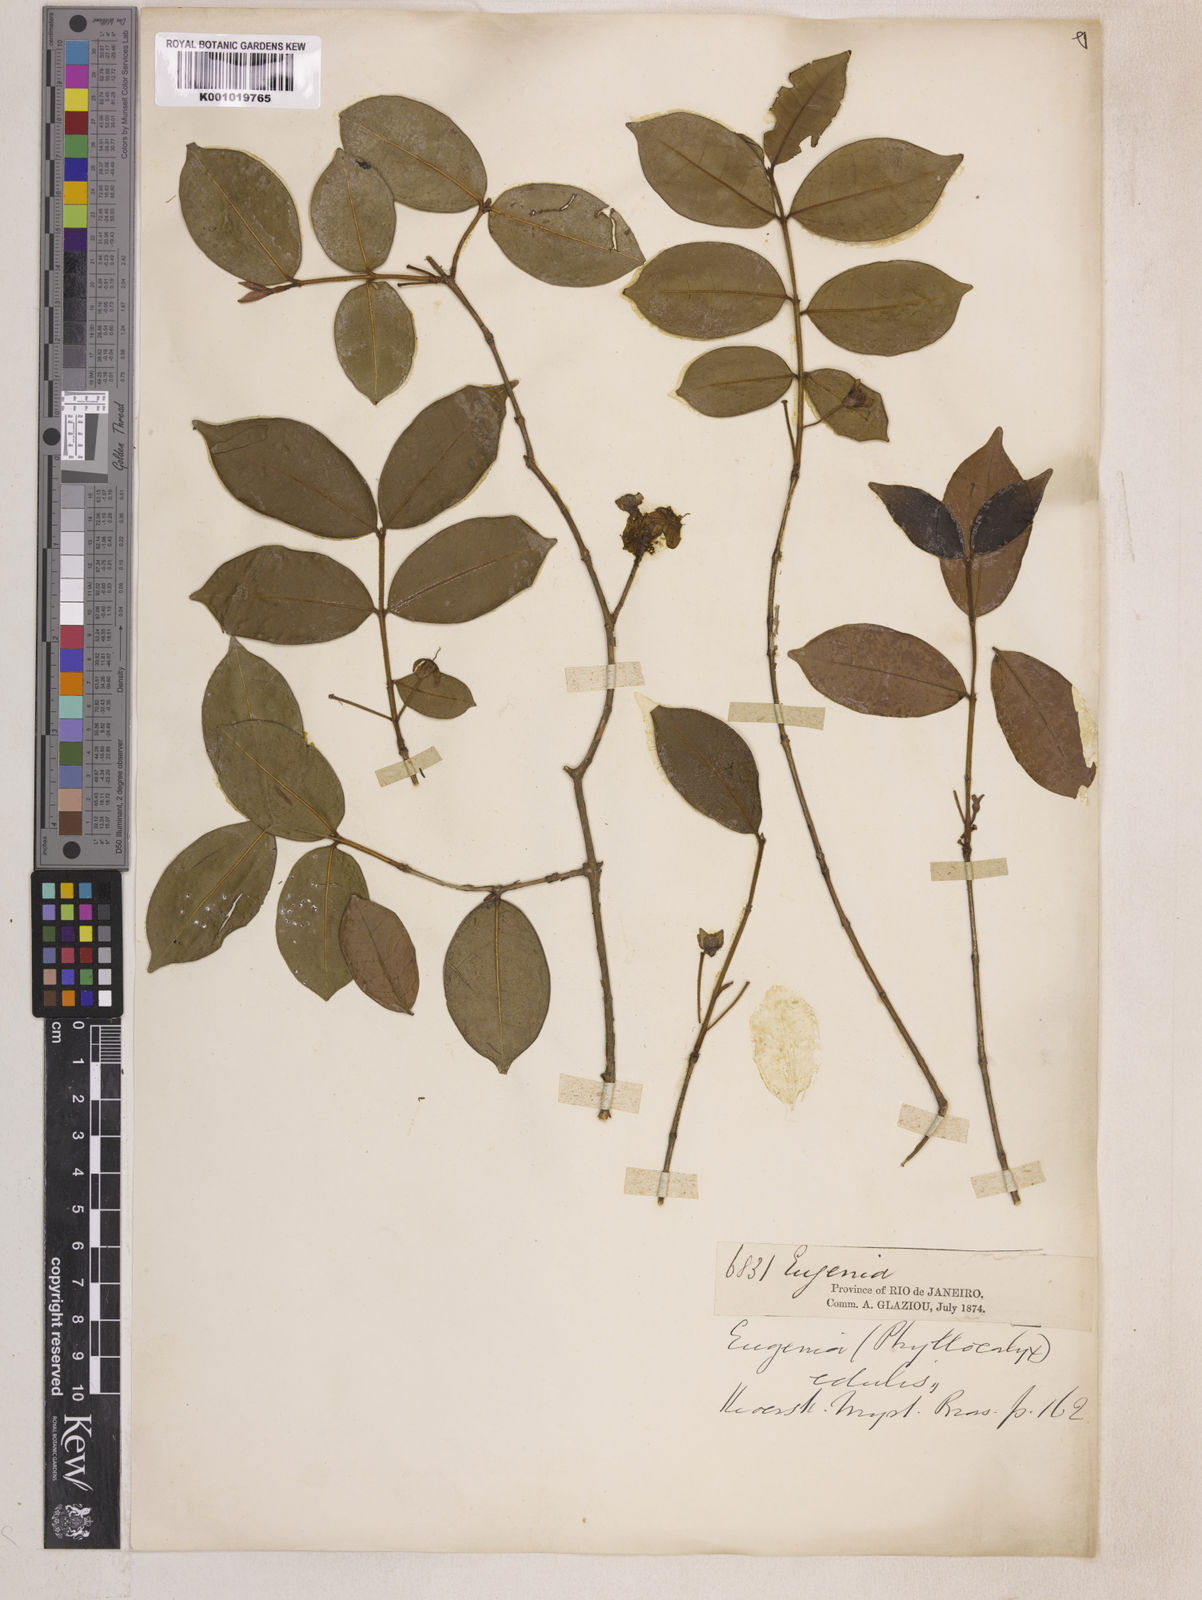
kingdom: Plantae
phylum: Tracheophyta
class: Magnoliopsida
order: Myrtales
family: Myrtaceae
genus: Eugenia
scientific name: Eugenia selloi
